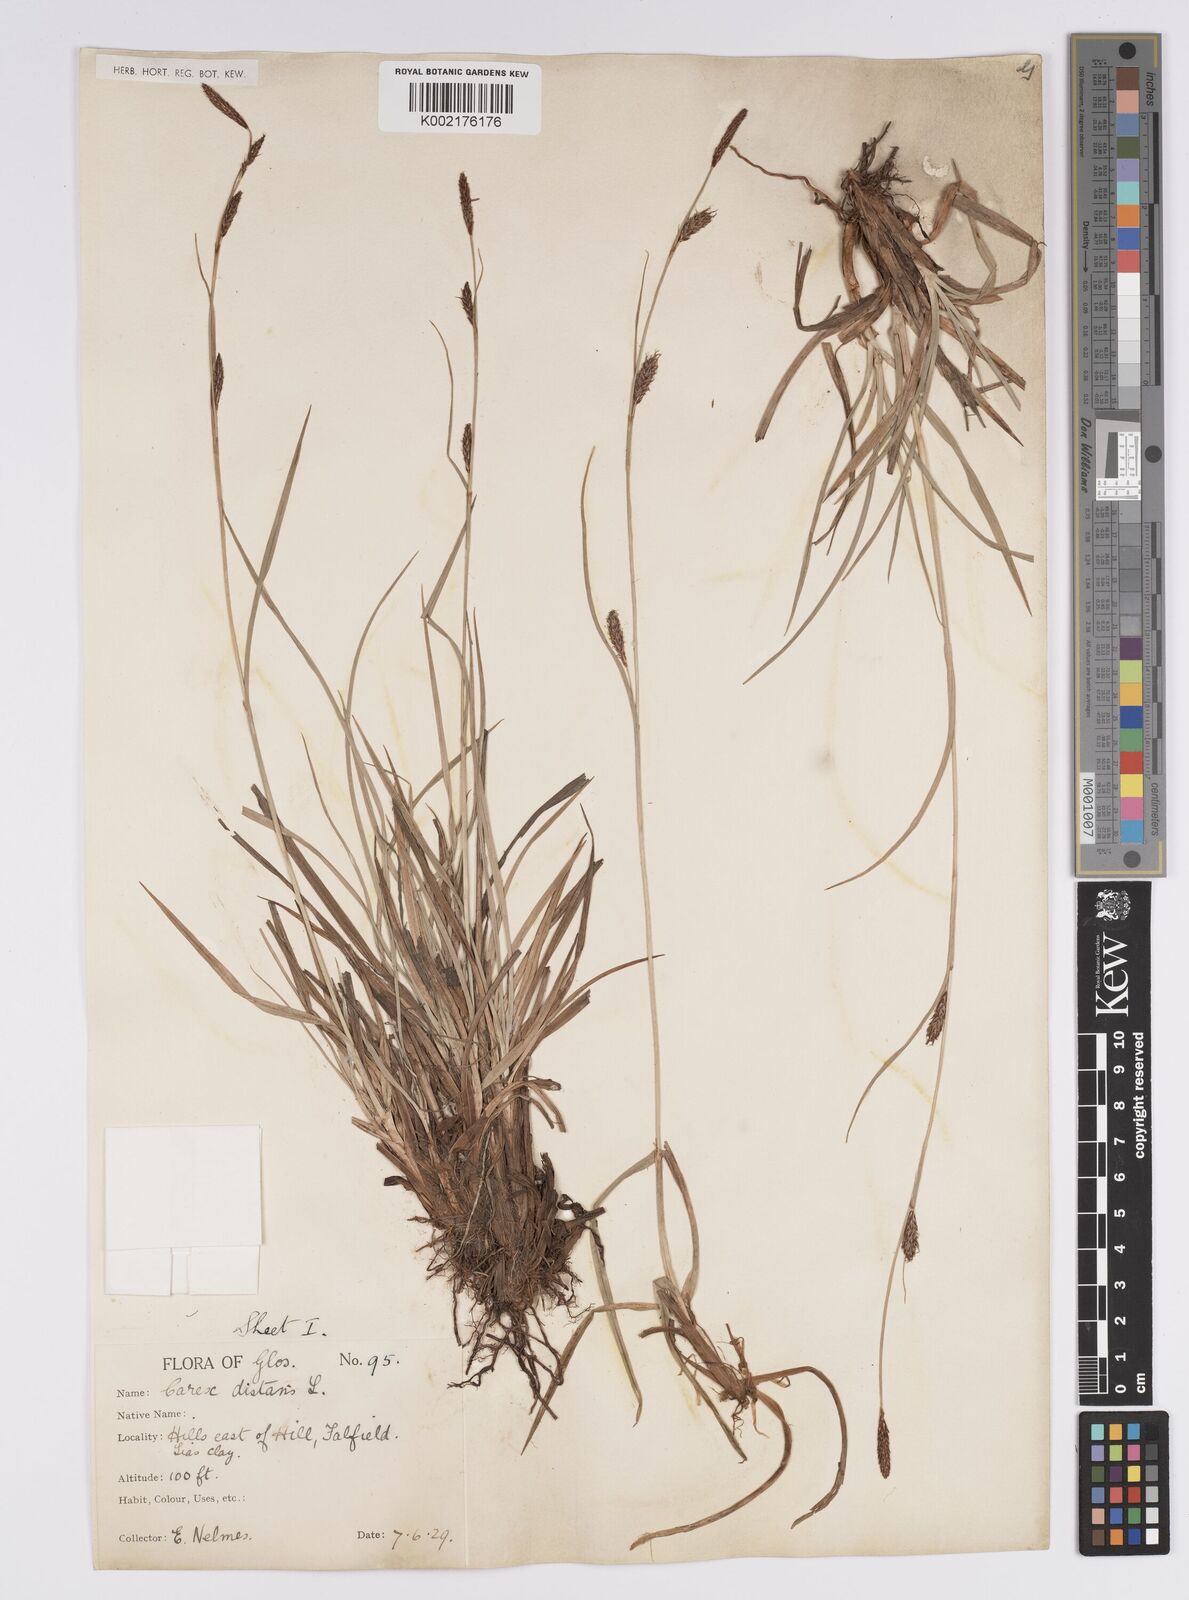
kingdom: Plantae
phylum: Tracheophyta
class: Liliopsida
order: Poales
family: Cyperaceae
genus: Carex
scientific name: Carex distans
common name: Distant sedge
